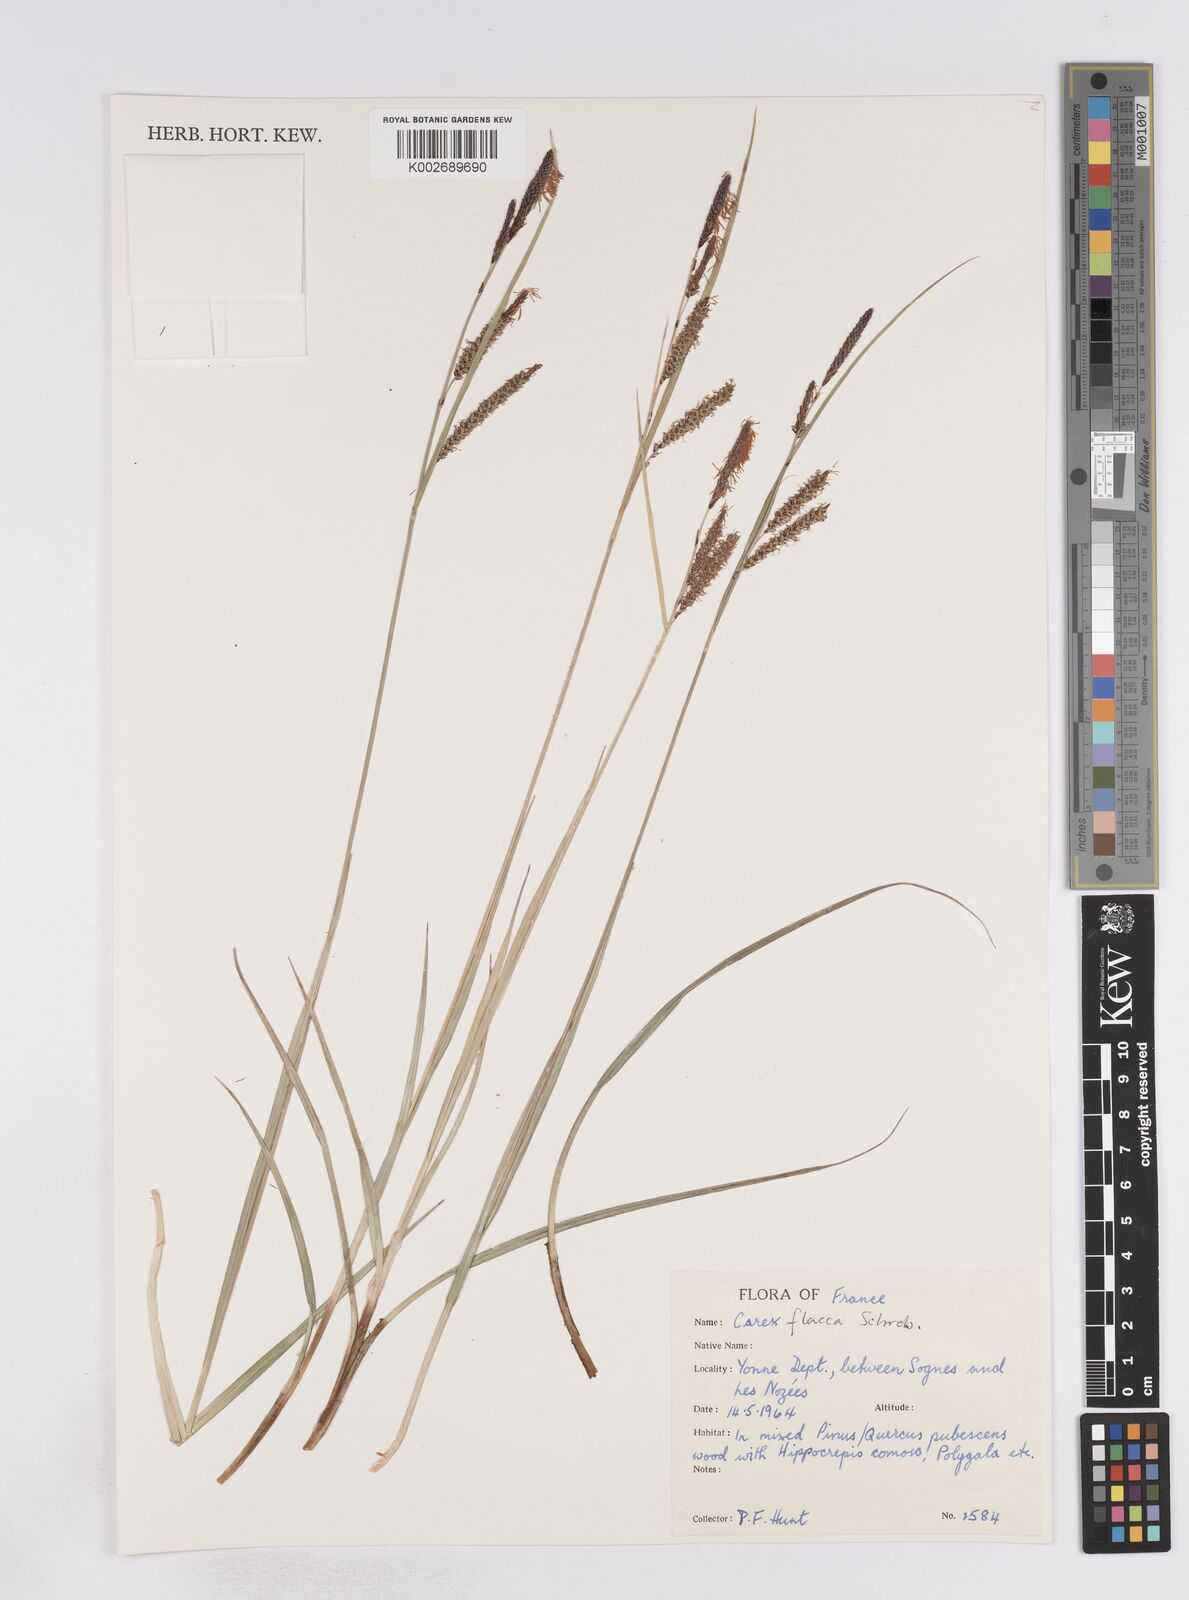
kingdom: Plantae
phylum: Tracheophyta
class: Liliopsida
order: Poales
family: Cyperaceae
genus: Carex
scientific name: Carex flacca
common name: Glaucous sedge
